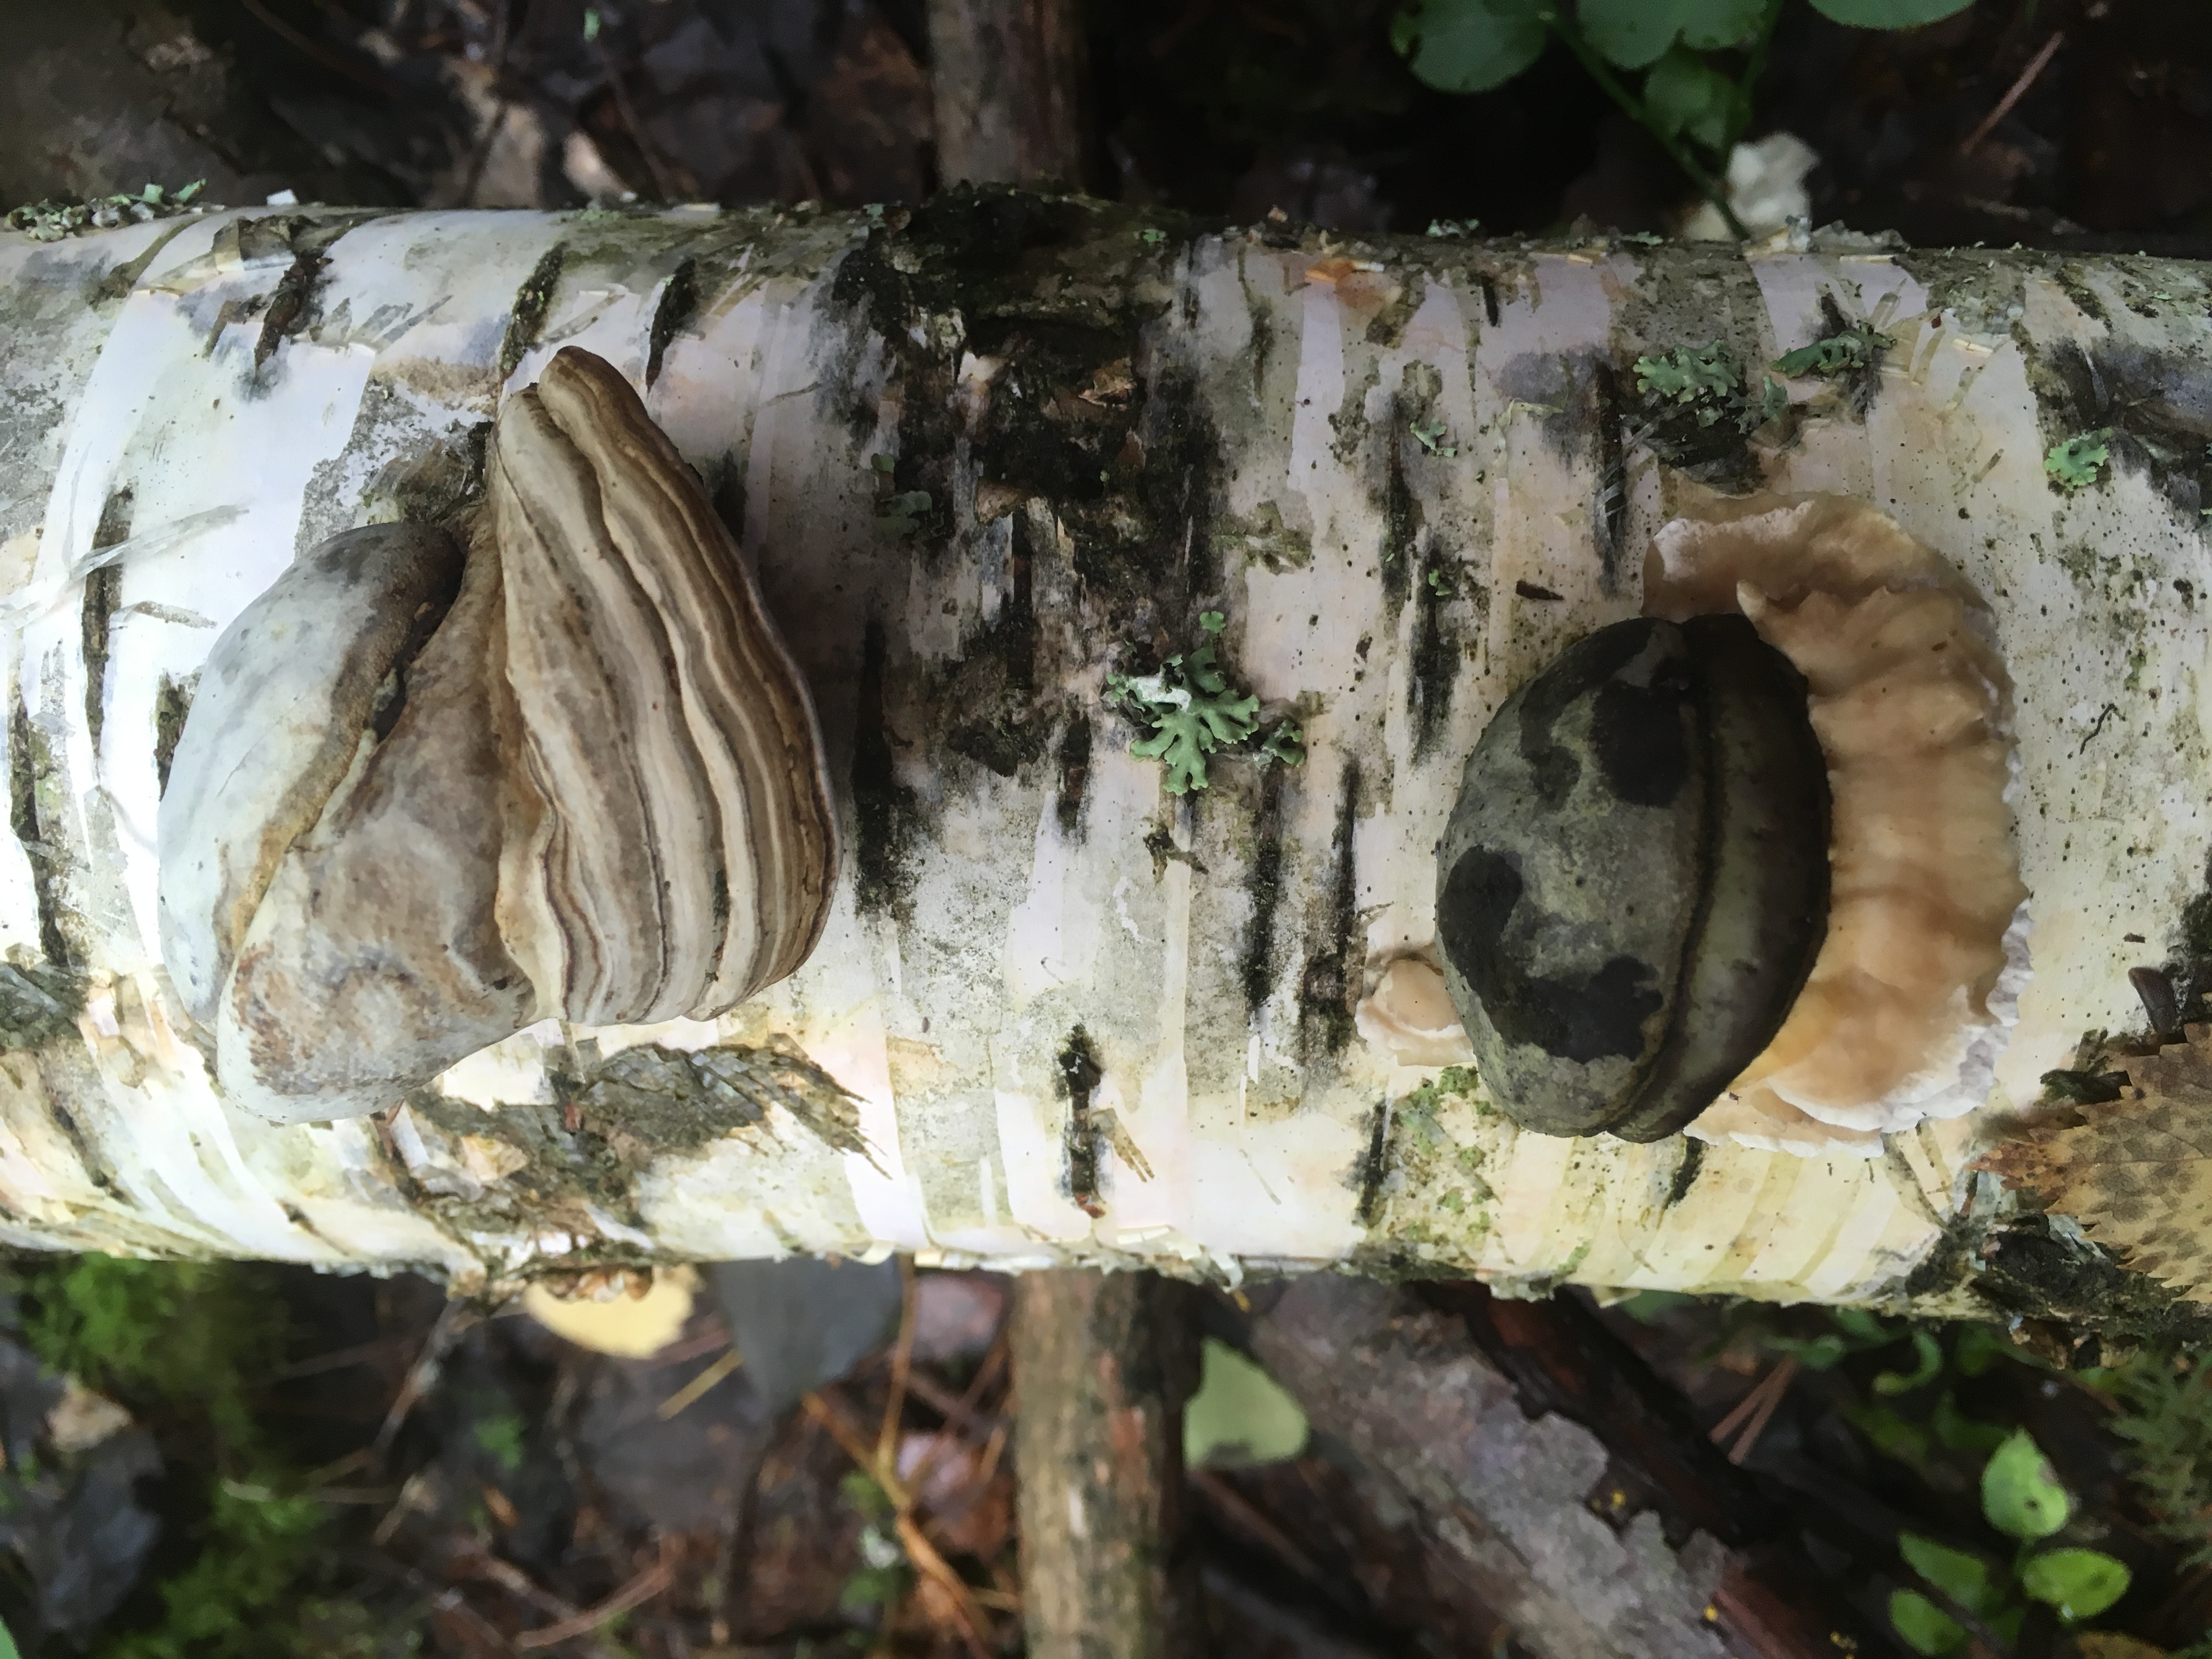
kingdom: Fungi
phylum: Basidiomycota
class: Agaricomycetes
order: Polyporales
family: Steccherinaceae
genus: Antrodiella
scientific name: Antrodiella pallescens
